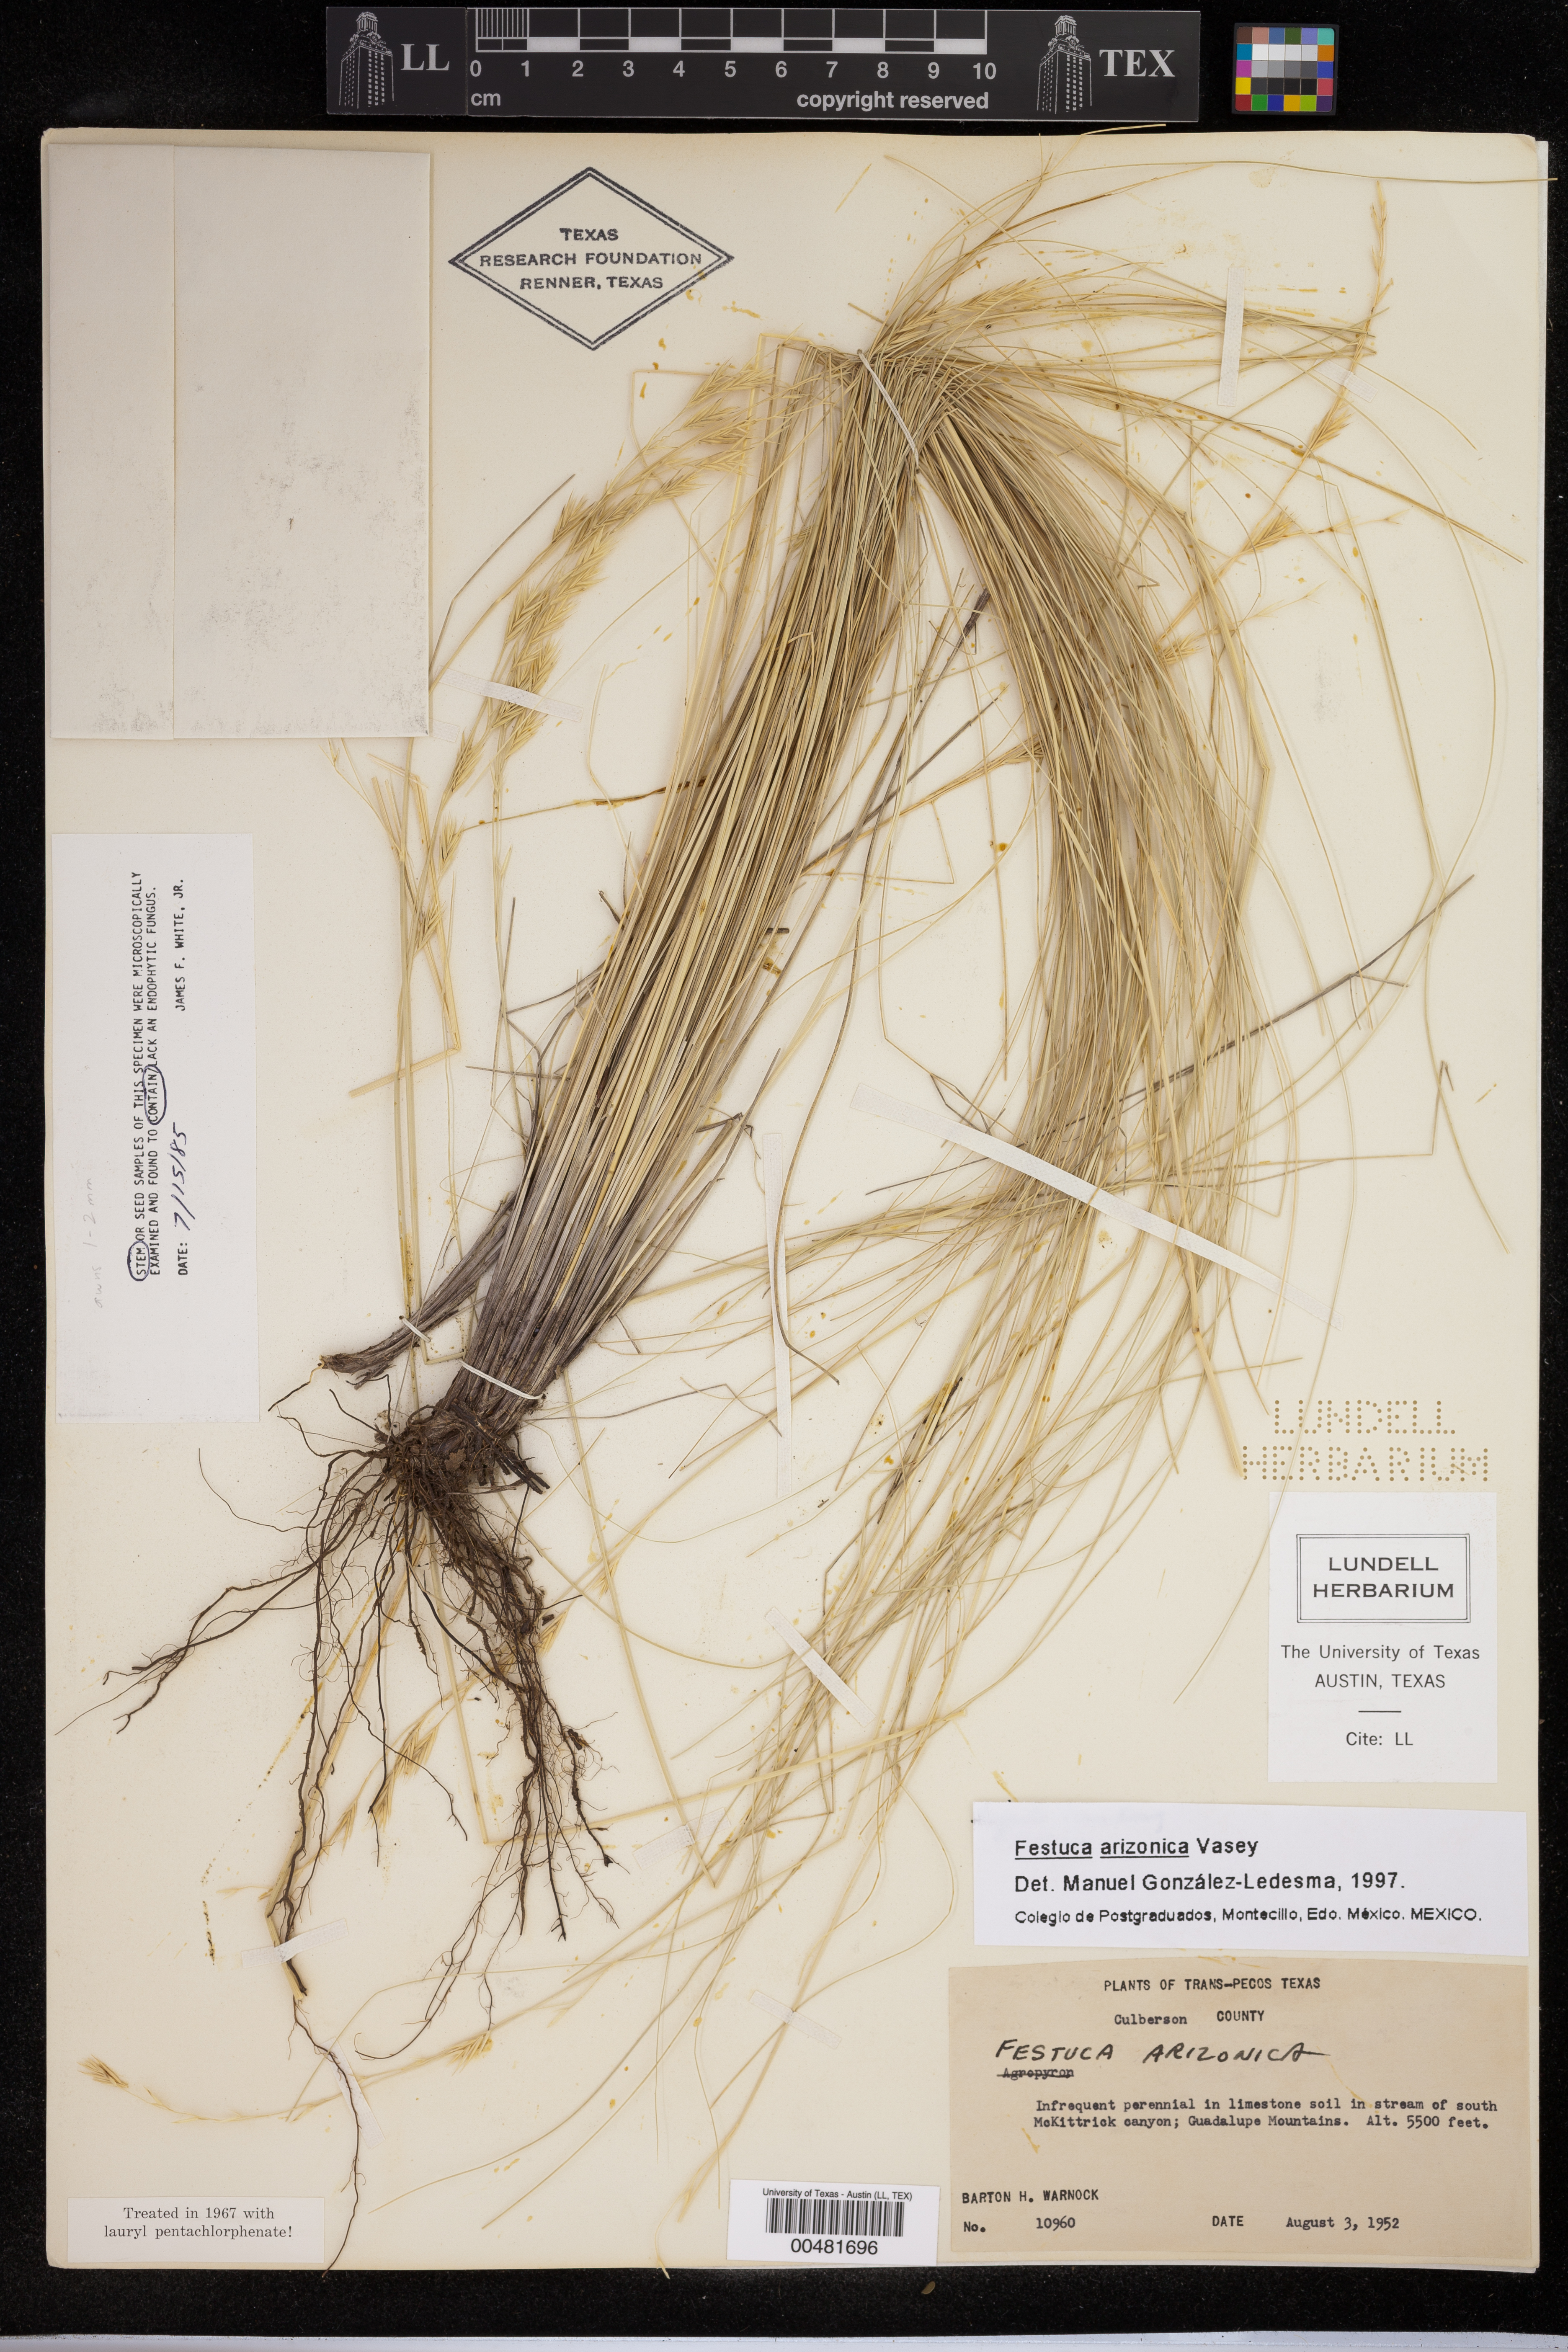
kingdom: Plantae
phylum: Tracheophyta
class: Liliopsida
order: Poales
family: Poaceae
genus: Festuca
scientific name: Festuca arizonica
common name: Pinegrass
